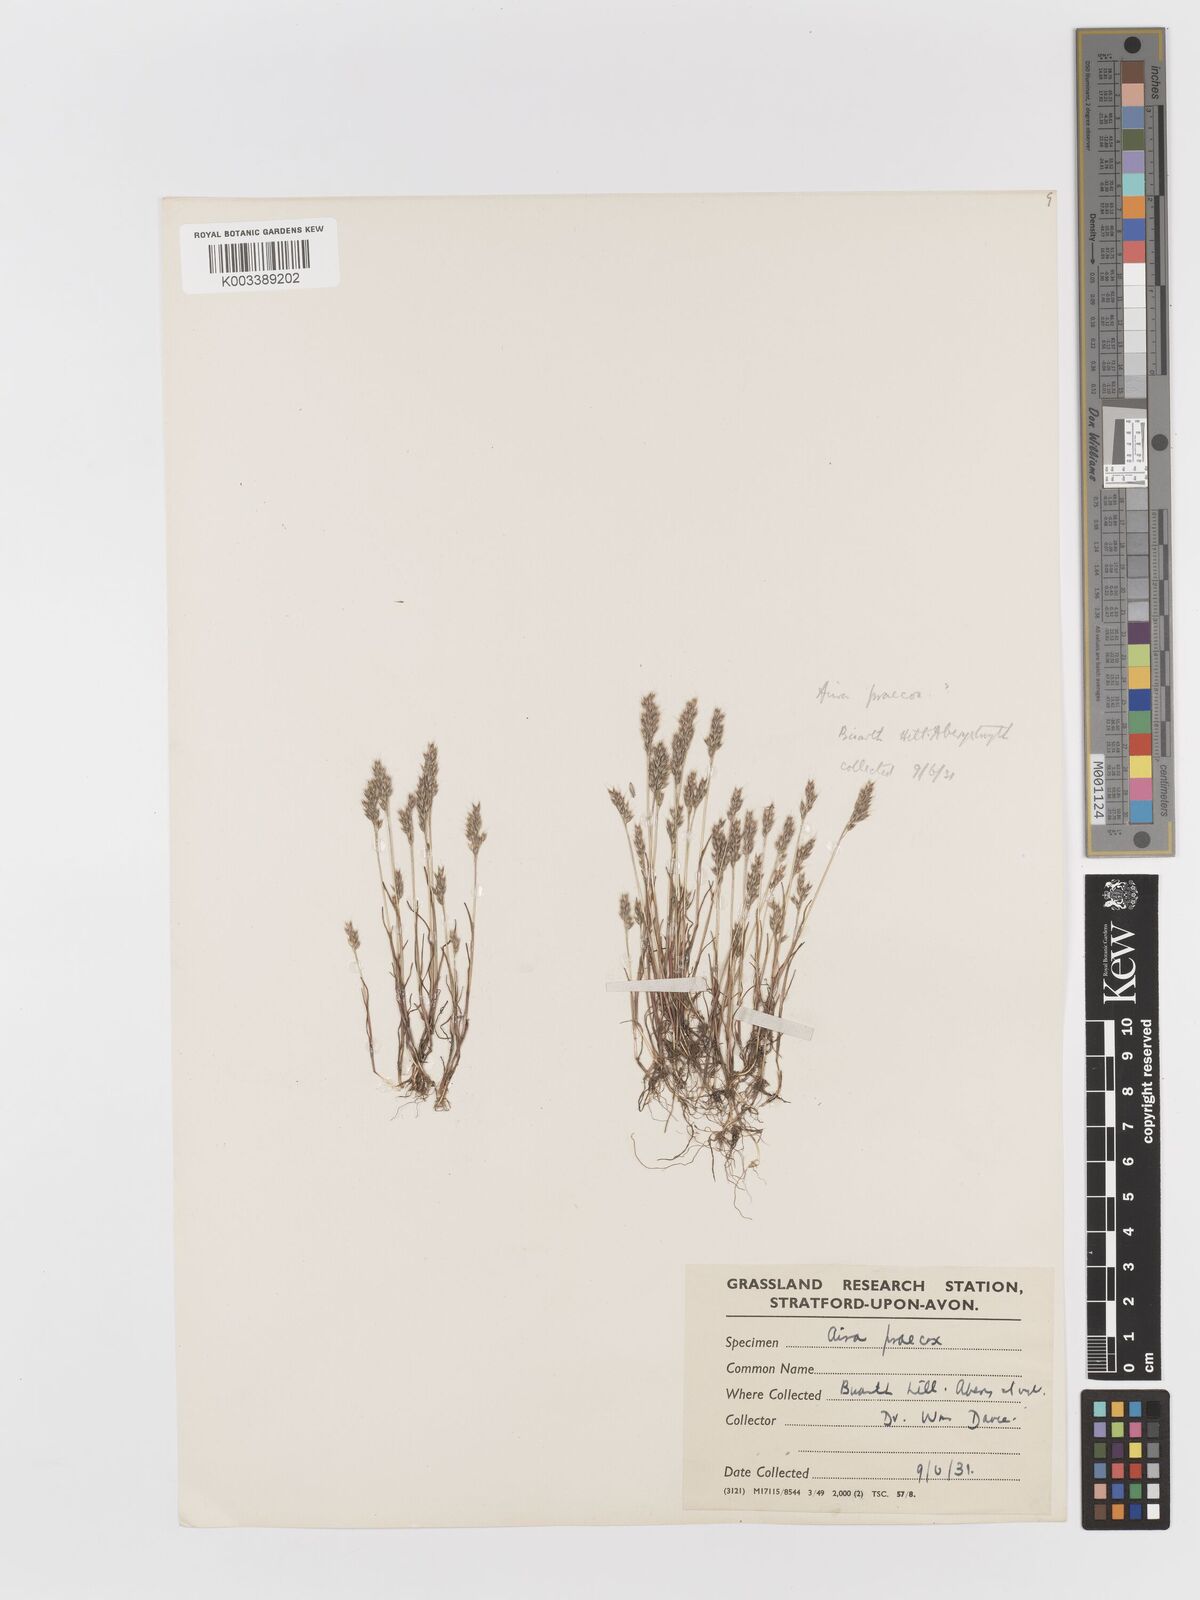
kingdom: Plantae
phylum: Tracheophyta
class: Liliopsida
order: Poales
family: Poaceae
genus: Aira
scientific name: Aira praecox
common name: Early hair-grass
